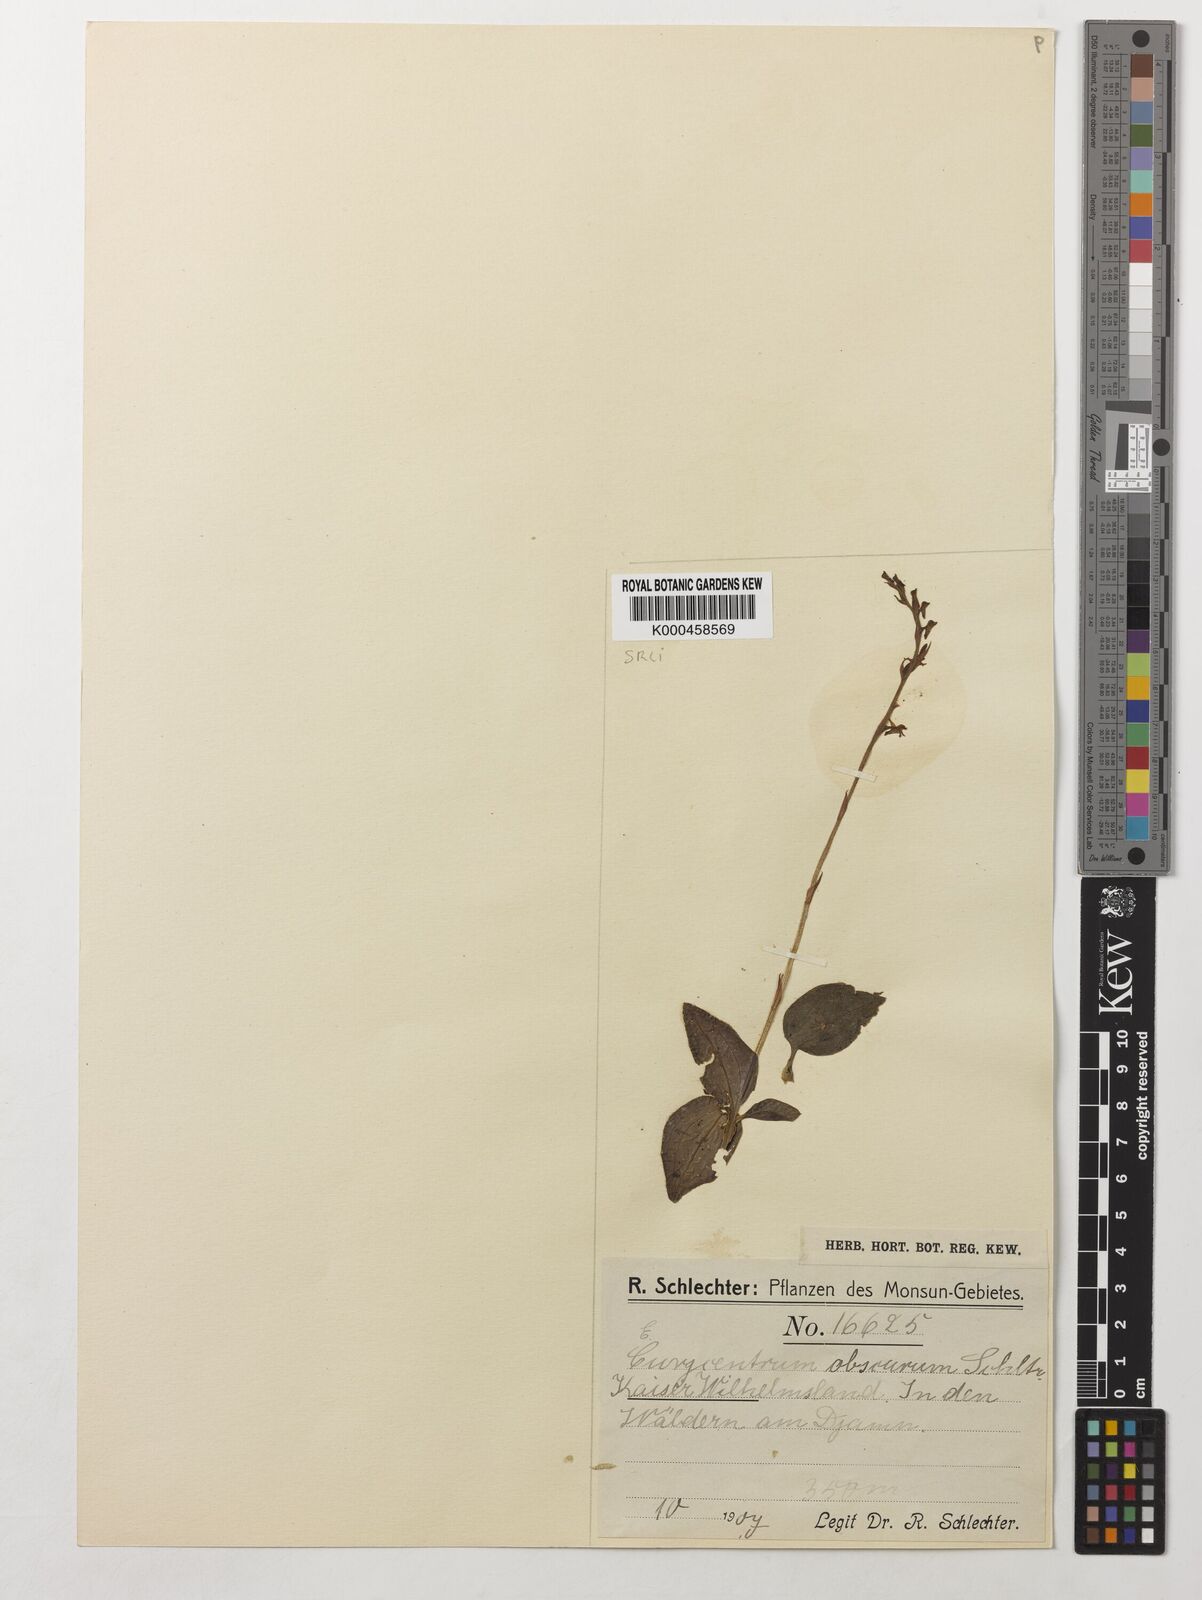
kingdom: Plantae
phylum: Tracheophyta
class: Liliopsida
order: Asparagales
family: Orchidaceae
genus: Eurycentrum
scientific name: Eurycentrum obscurum
